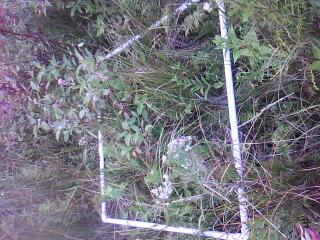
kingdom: Plantae
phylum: Tracheophyta
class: Magnoliopsida
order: Asterales
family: Asteraceae
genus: Eupatorium
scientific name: Eupatorium perfoliatum
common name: Boneset
